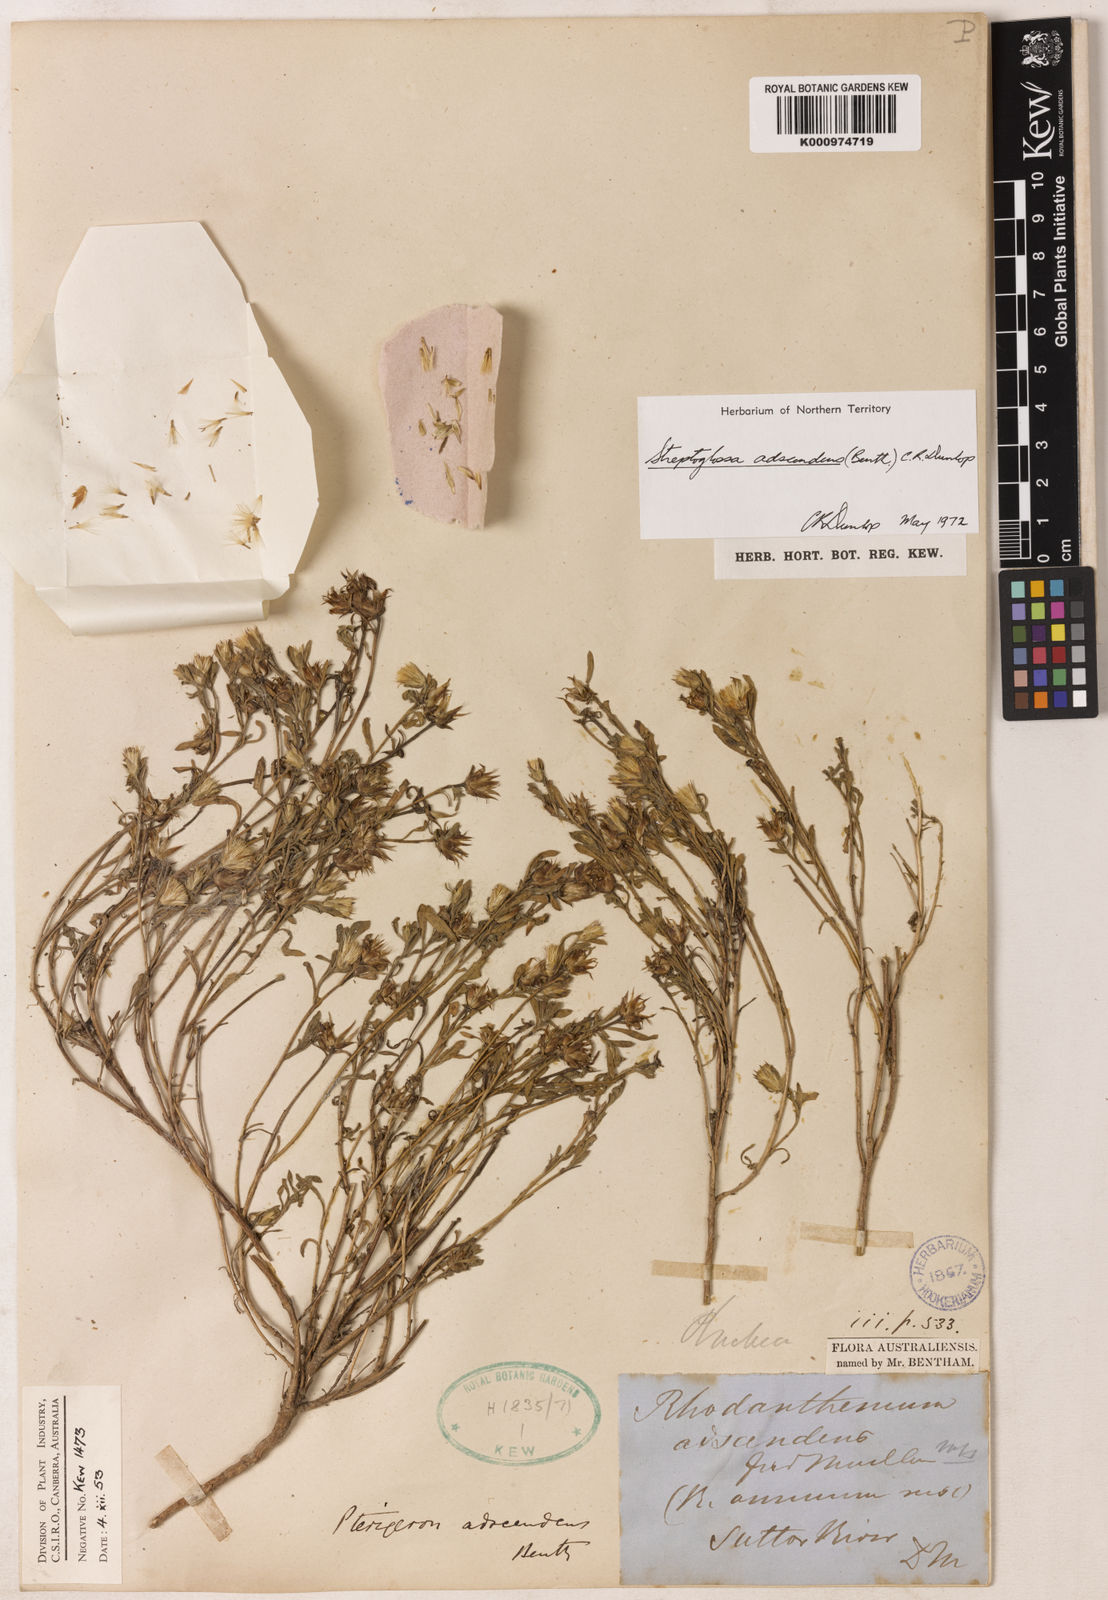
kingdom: Plantae
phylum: Tracheophyta
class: Magnoliopsida
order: Asterales
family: Asteraceae
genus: Streptoglossa
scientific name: Streptoglossa adscendens
